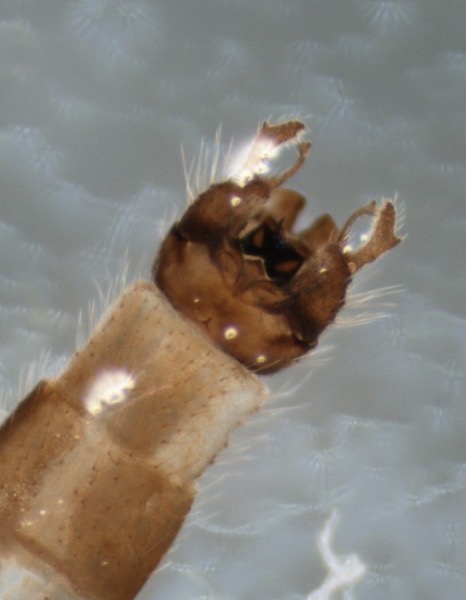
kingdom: Animalia
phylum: Arthropoda
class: Insecta
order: Diptera
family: Dixidae
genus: Dixella
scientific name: Dixella serotina
